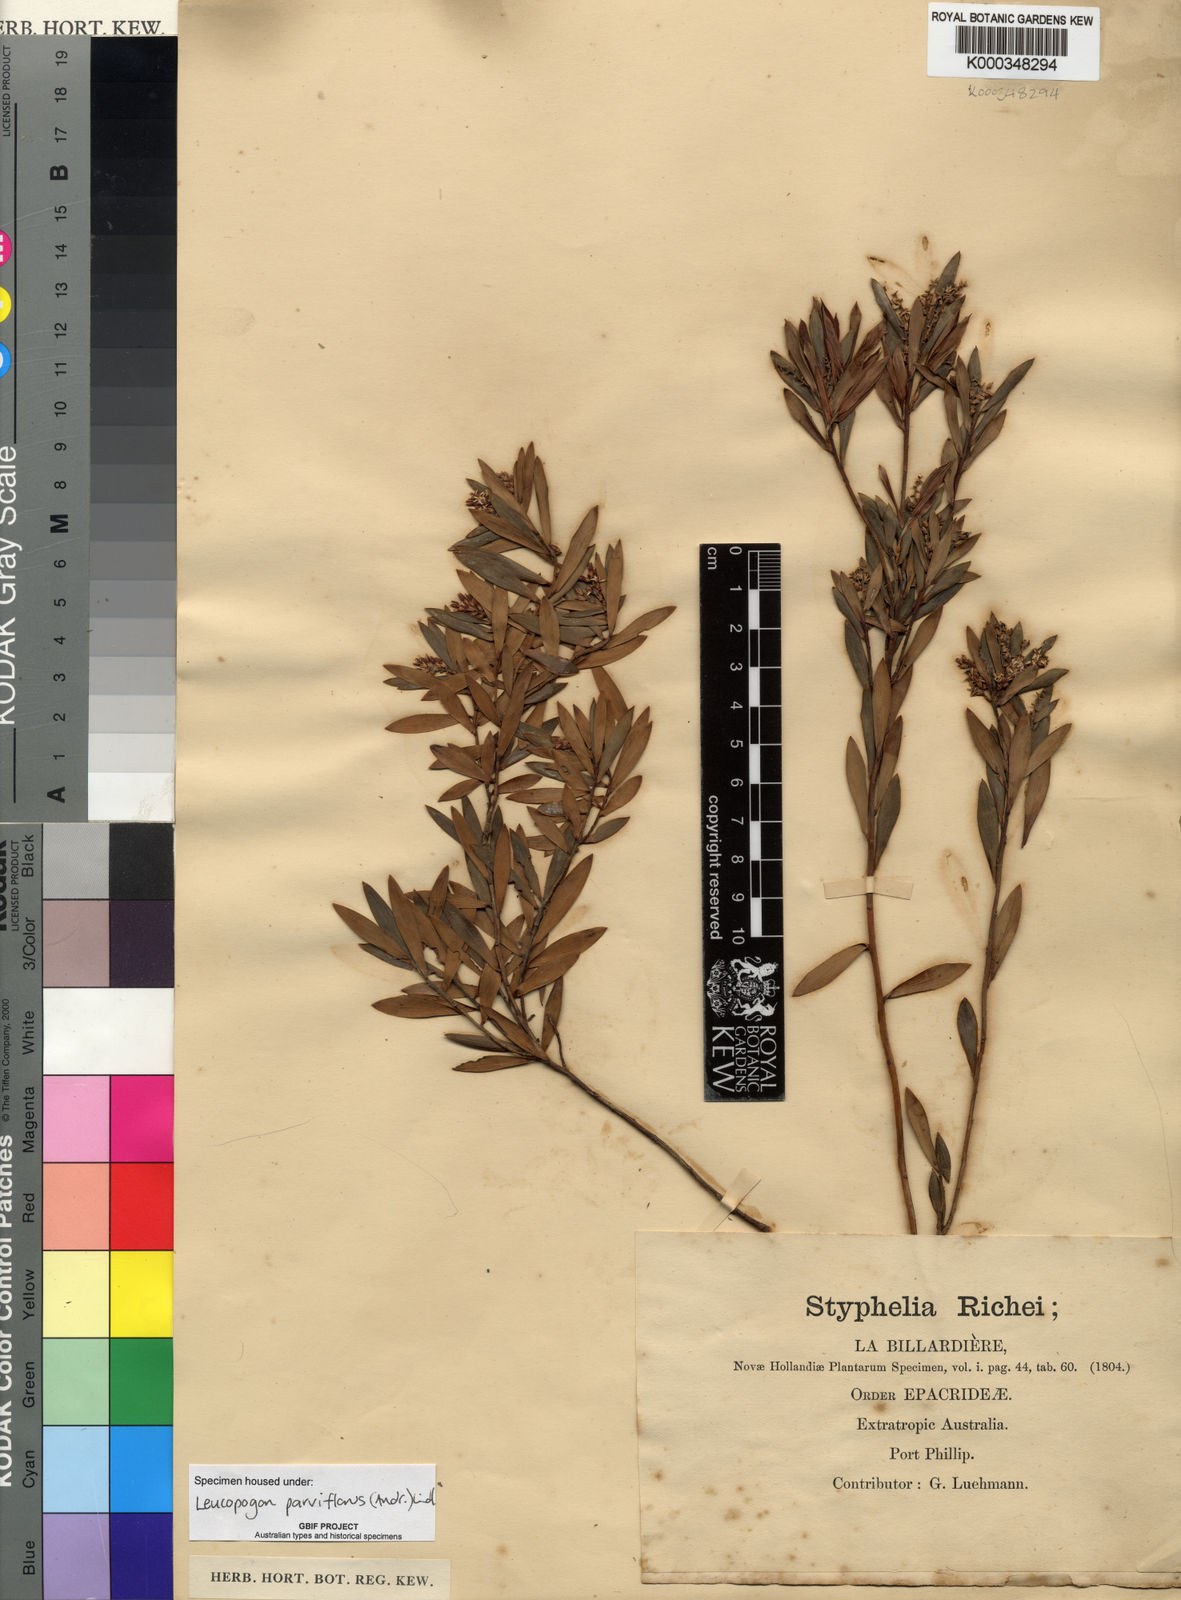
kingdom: Plantae
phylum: Tracheophyta
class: Magnoliopsida
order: Ericales
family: Ericaceae
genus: Leptecophylla
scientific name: Leptecophylla parvifolia
